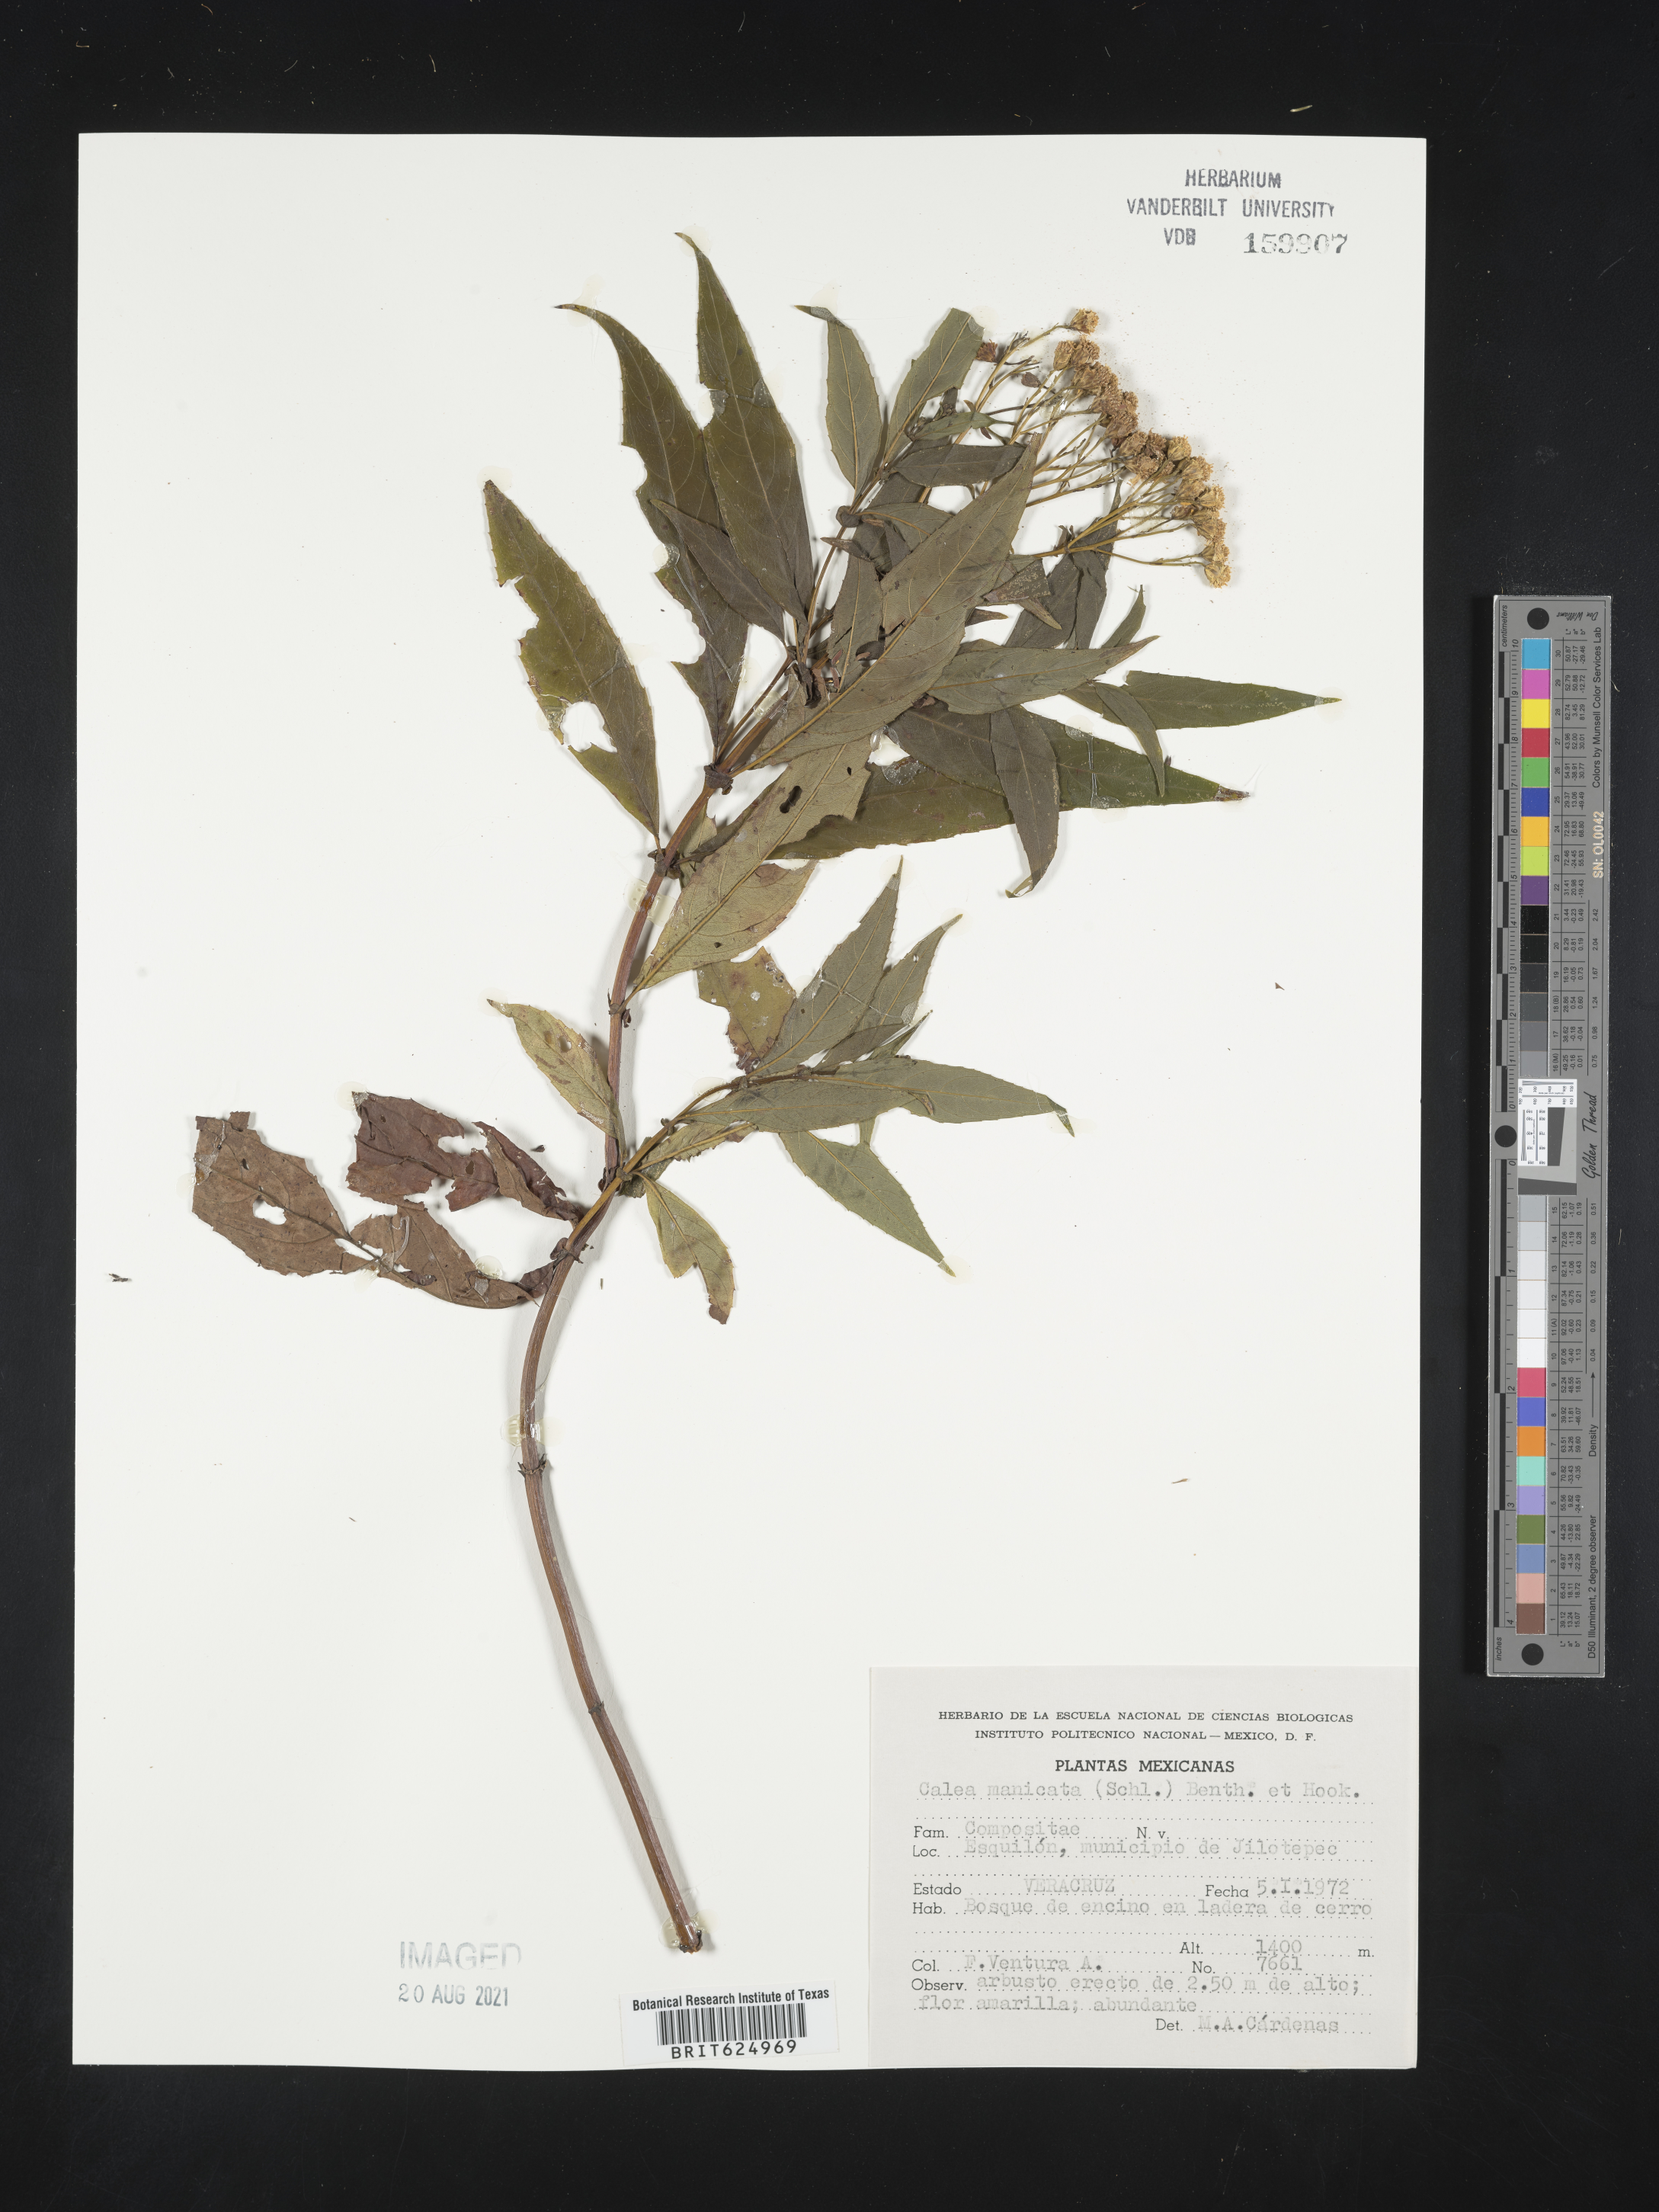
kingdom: Plantae
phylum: Tracheophyta
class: Magnoliopsida
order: Asterales
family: Asteraceae
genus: Tetrachyron
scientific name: Tetrachyron manicatum
